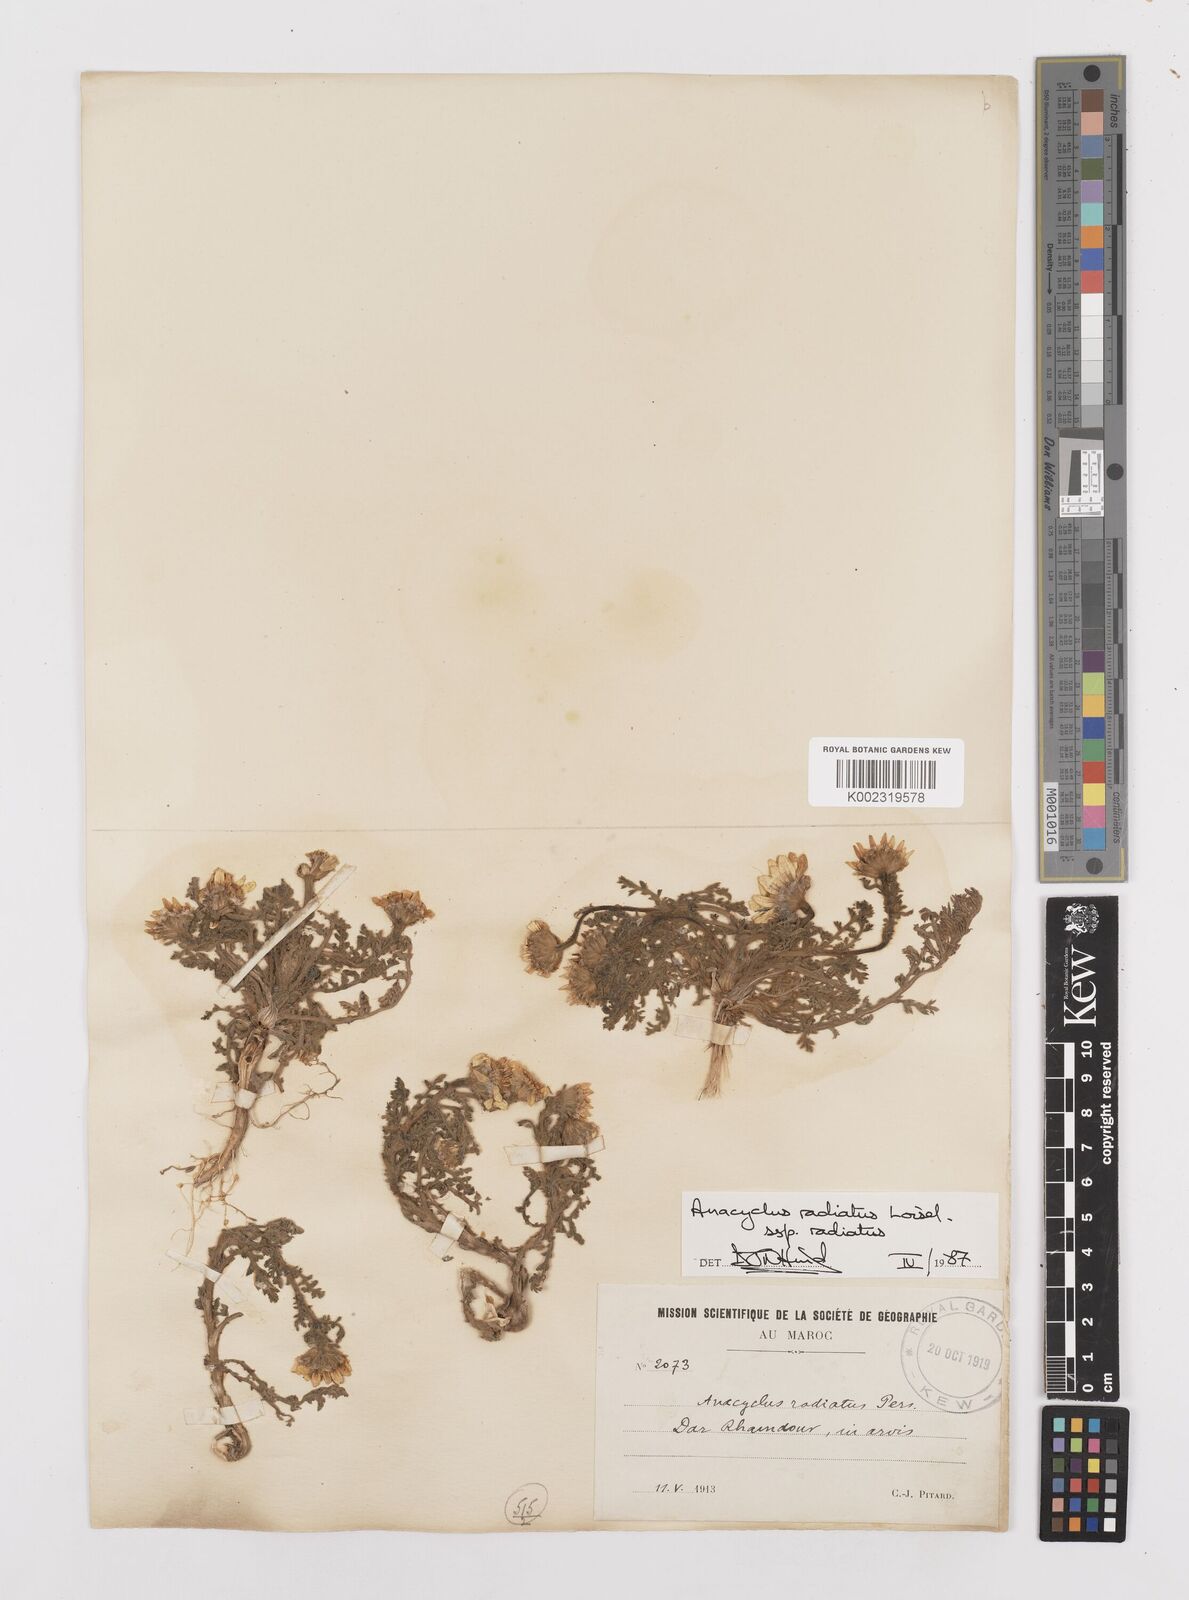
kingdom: Plantae
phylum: Tracheophyta
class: Magnoliopsida
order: Asterales
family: Asteraceae
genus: Anacyclus
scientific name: Anacyclus radiatus
